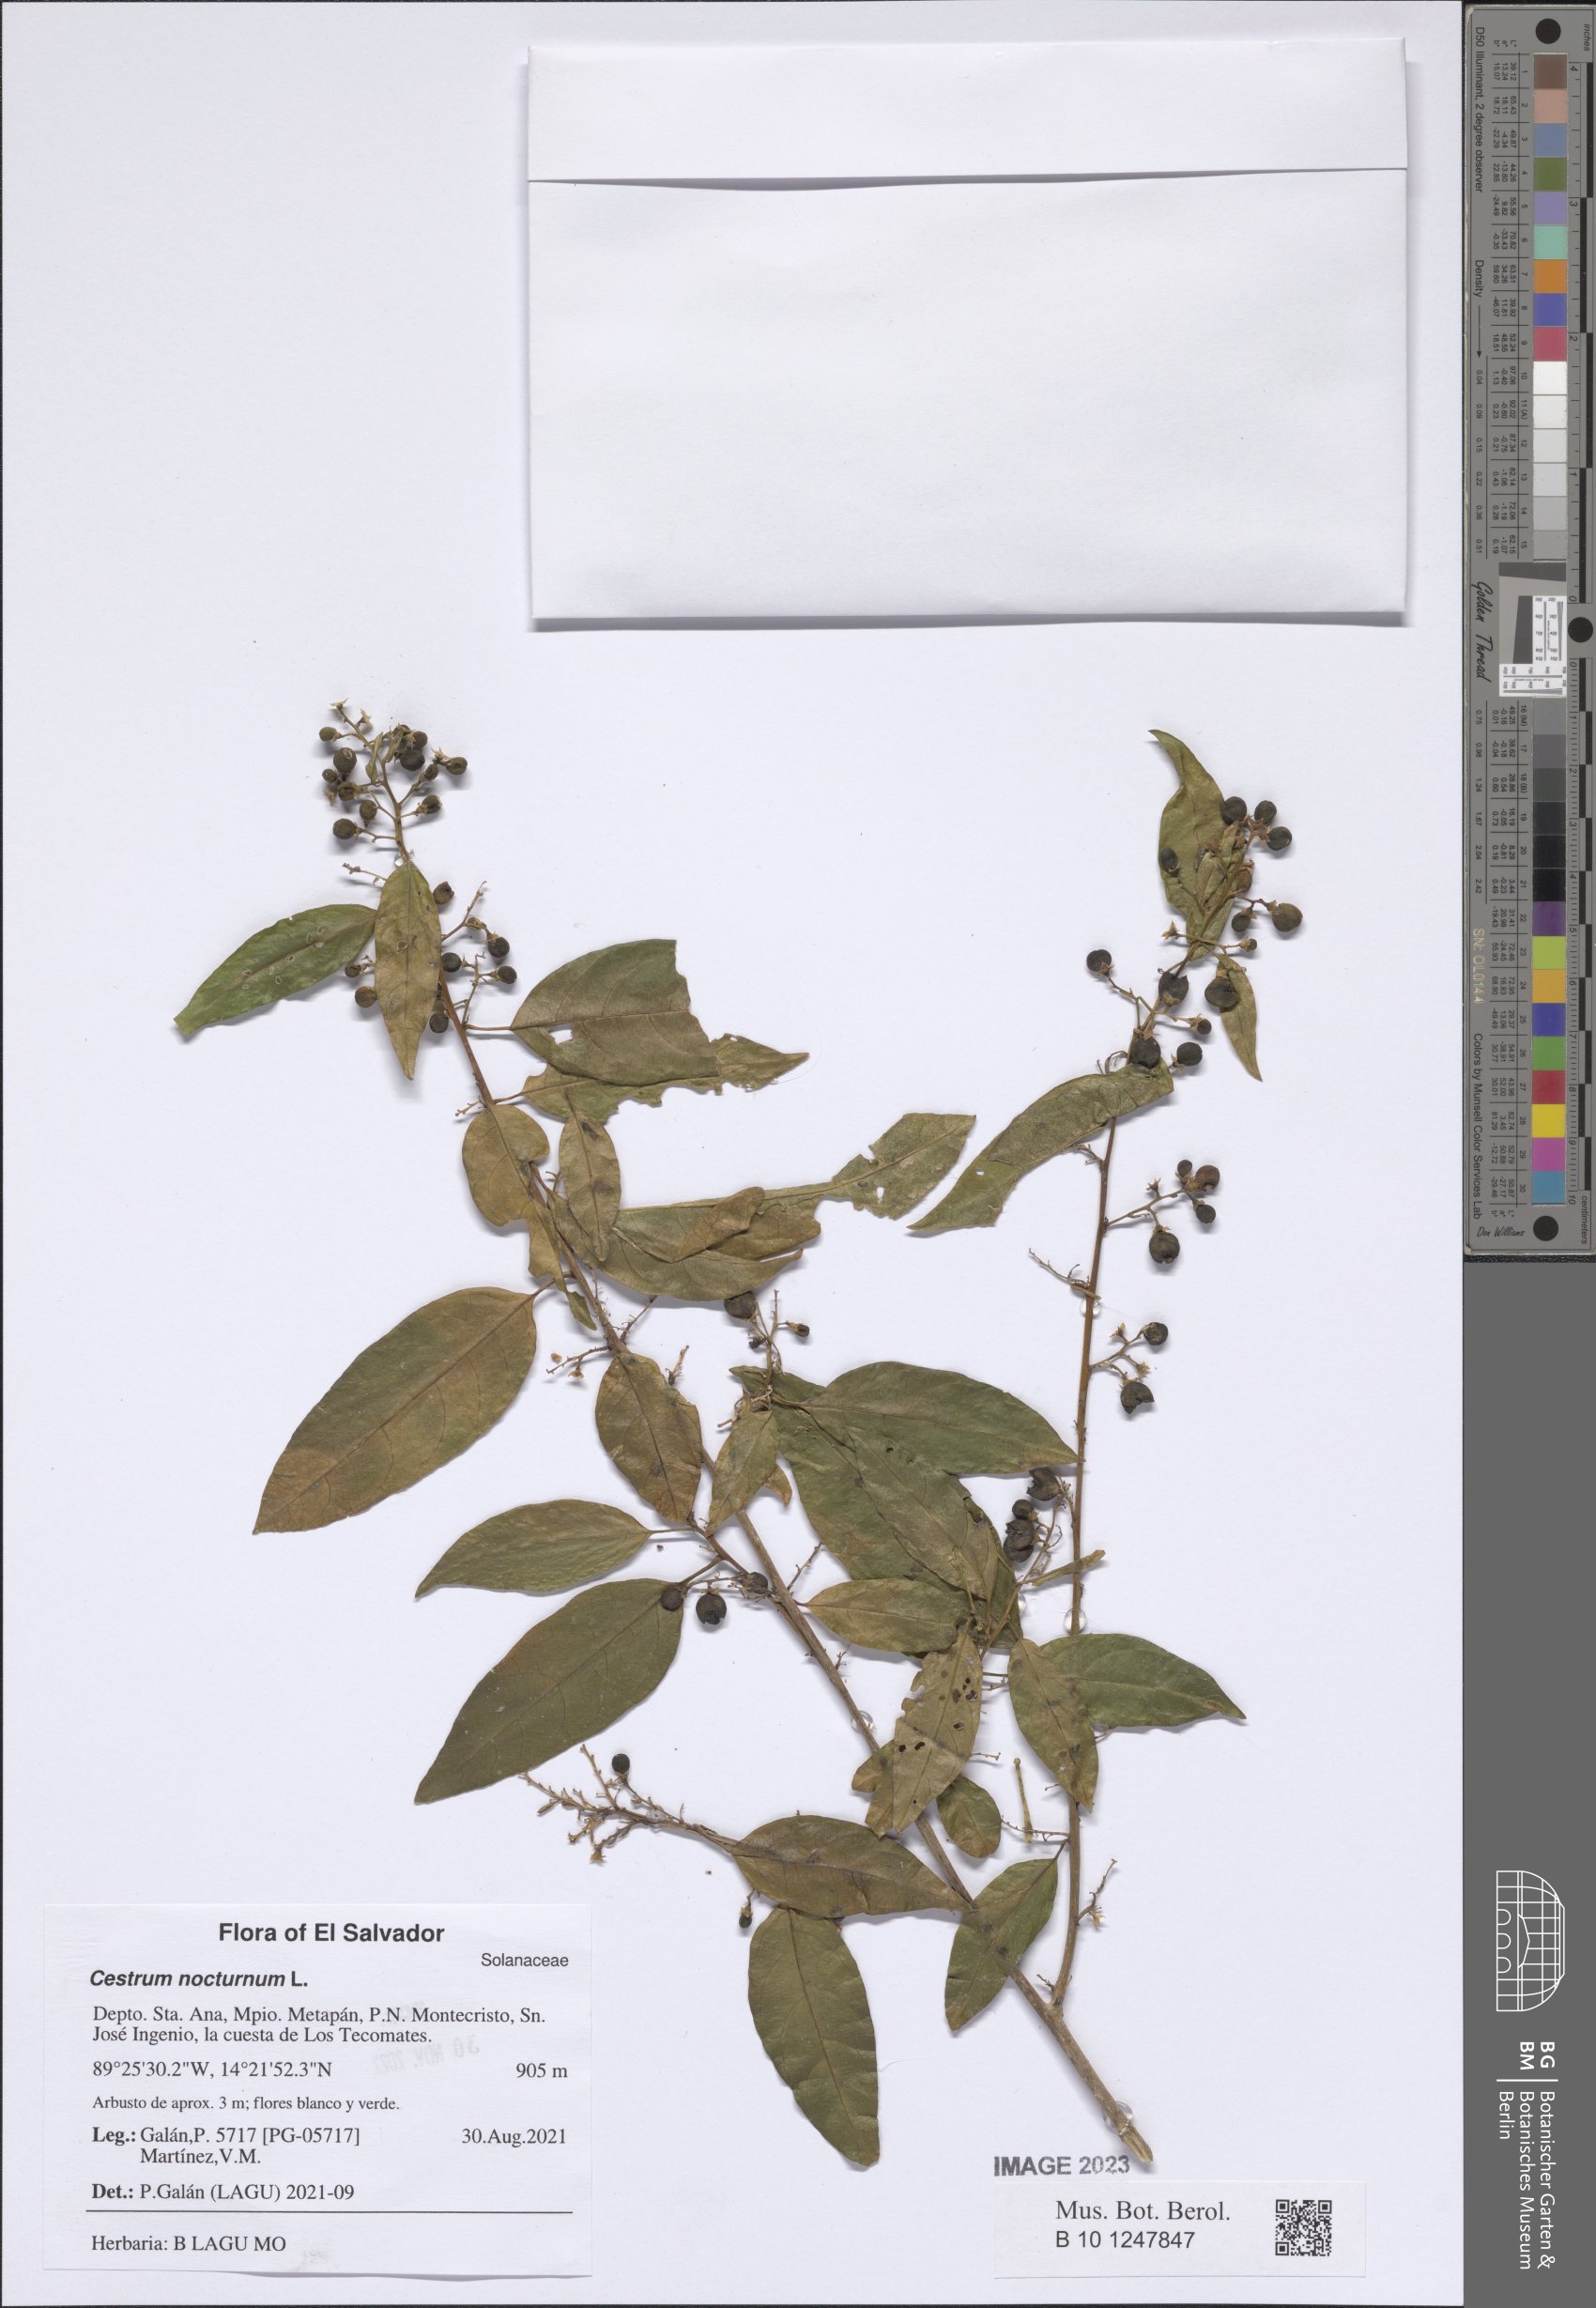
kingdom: Plantae
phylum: Tracheophyta
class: Magnoliopsida
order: Solanales
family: Solanaceae
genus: Cestrum
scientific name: Cestrum nocturnum
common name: Night jessamine
